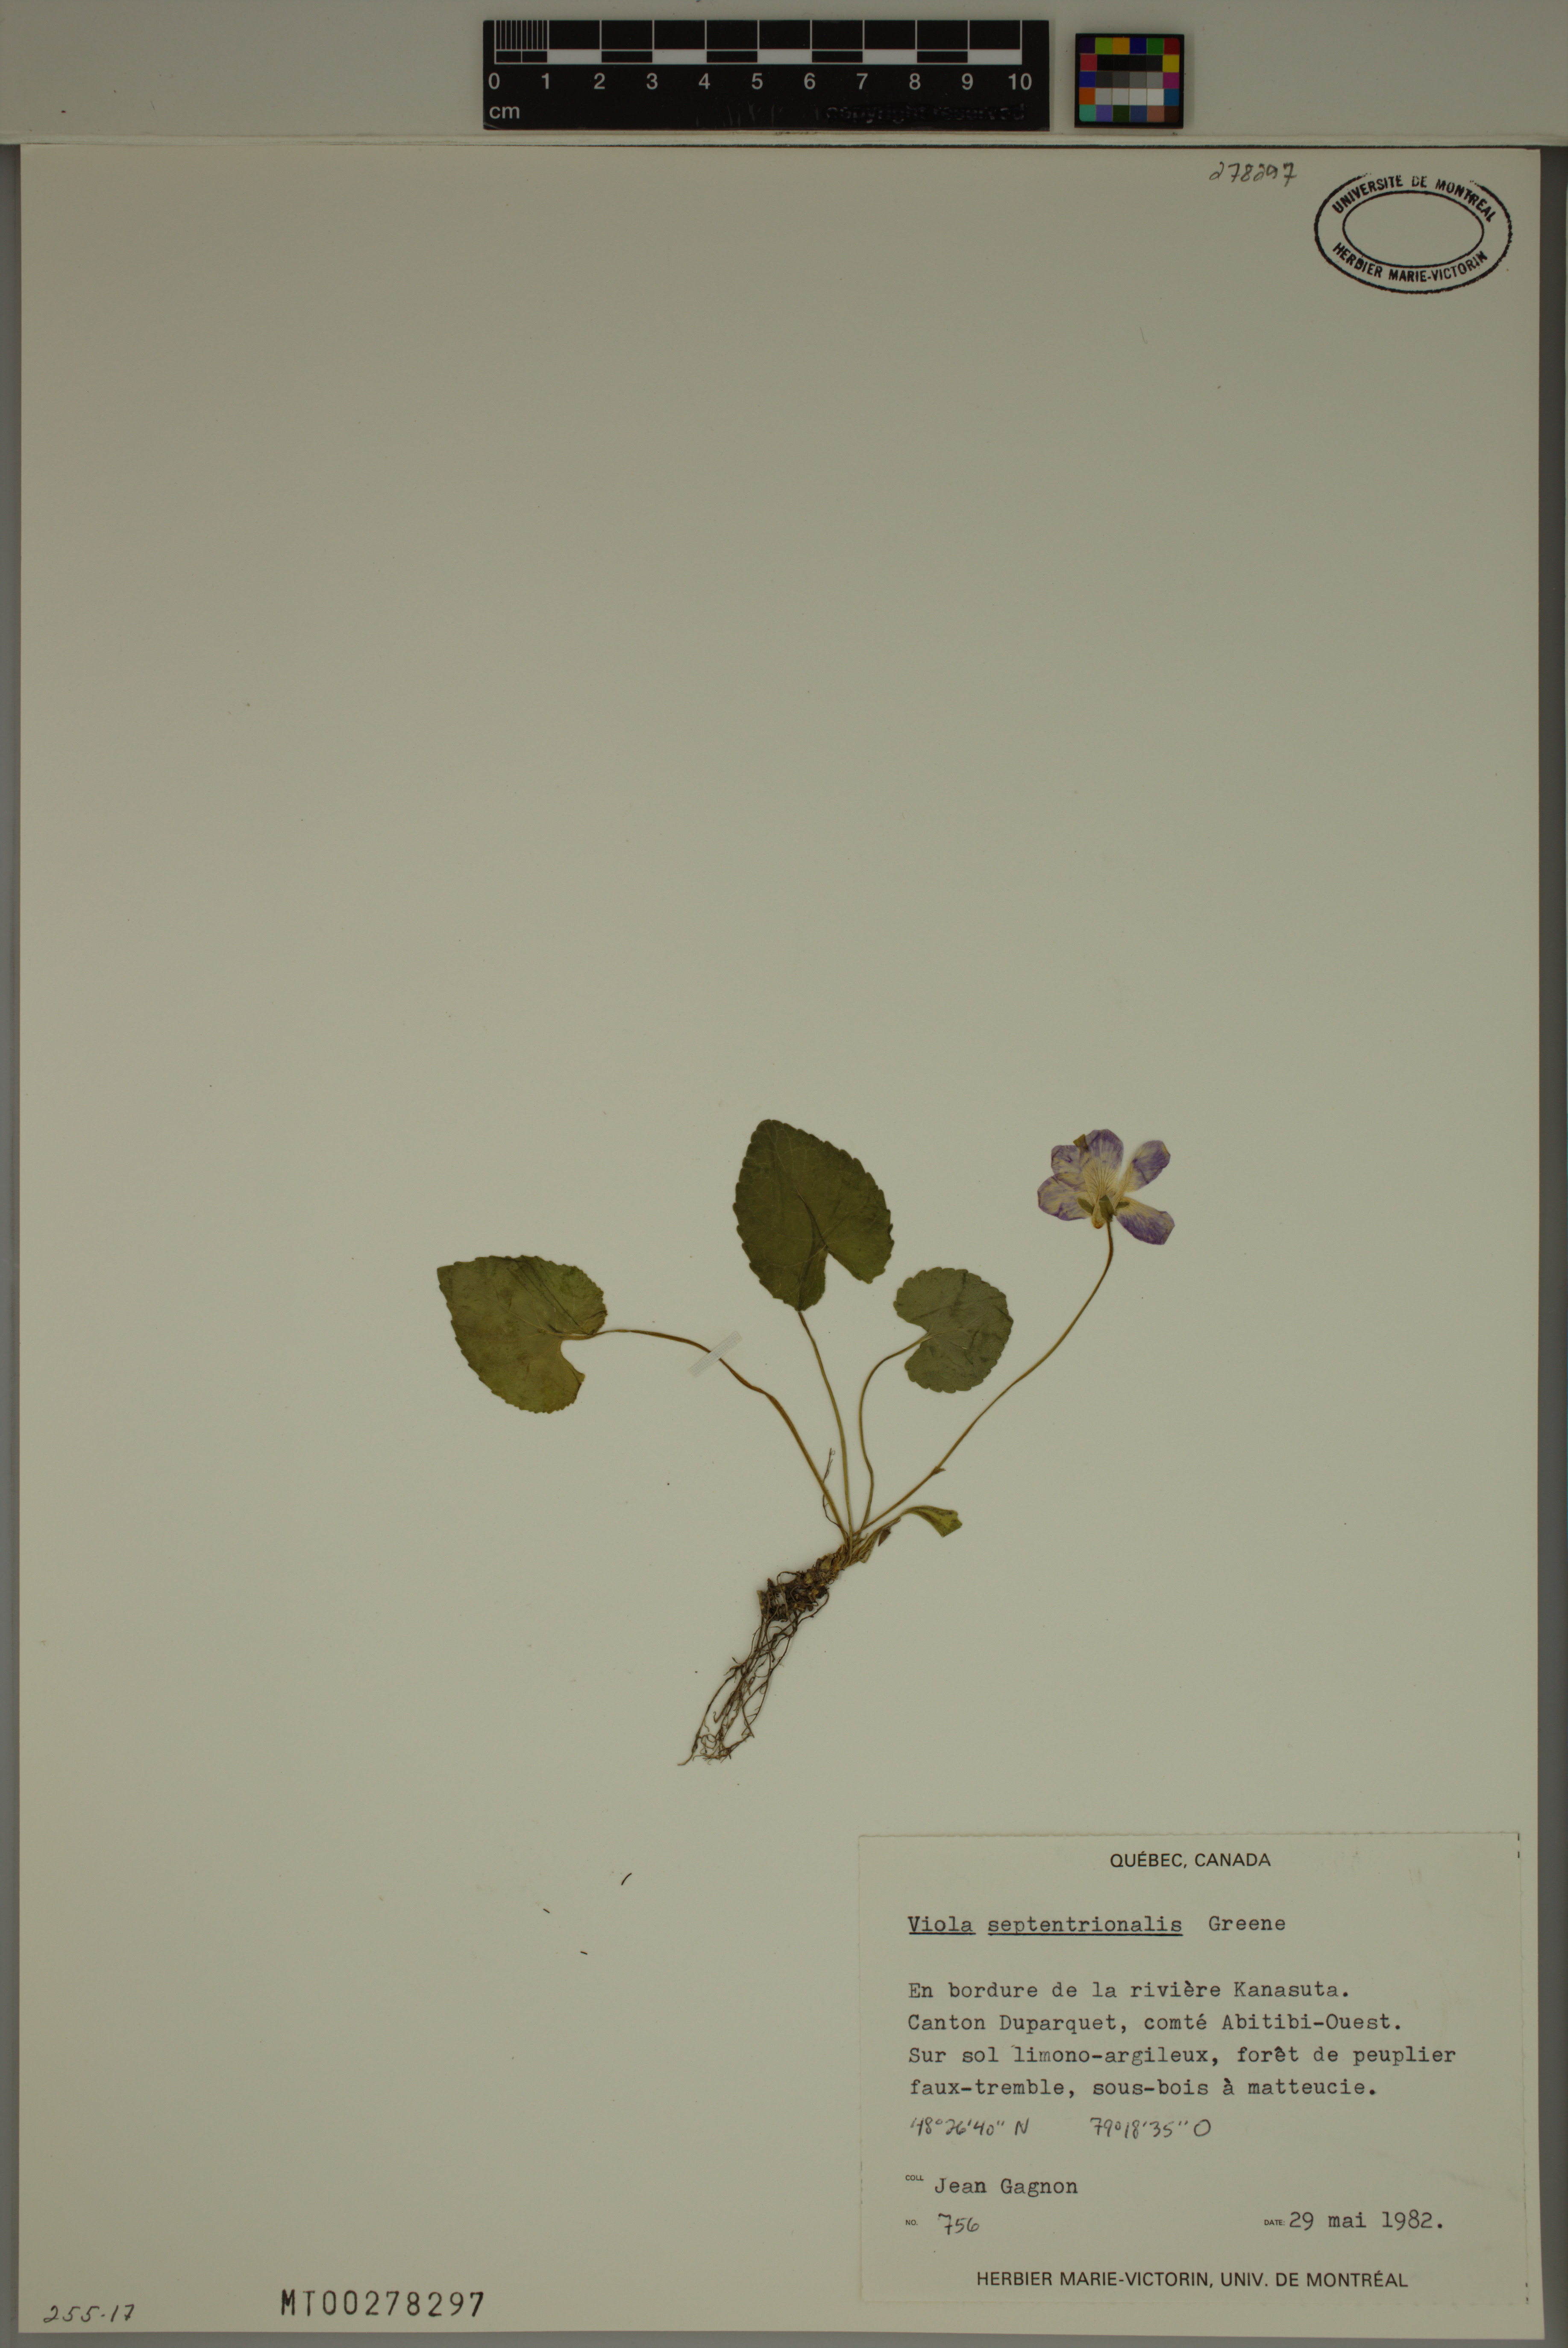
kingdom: Plantae
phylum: Tracheophyta
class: Magnoliopsida
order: Malpighiales
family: Violaceae
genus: Viola
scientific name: Viola septentrionalis
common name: Northern woodland violet
